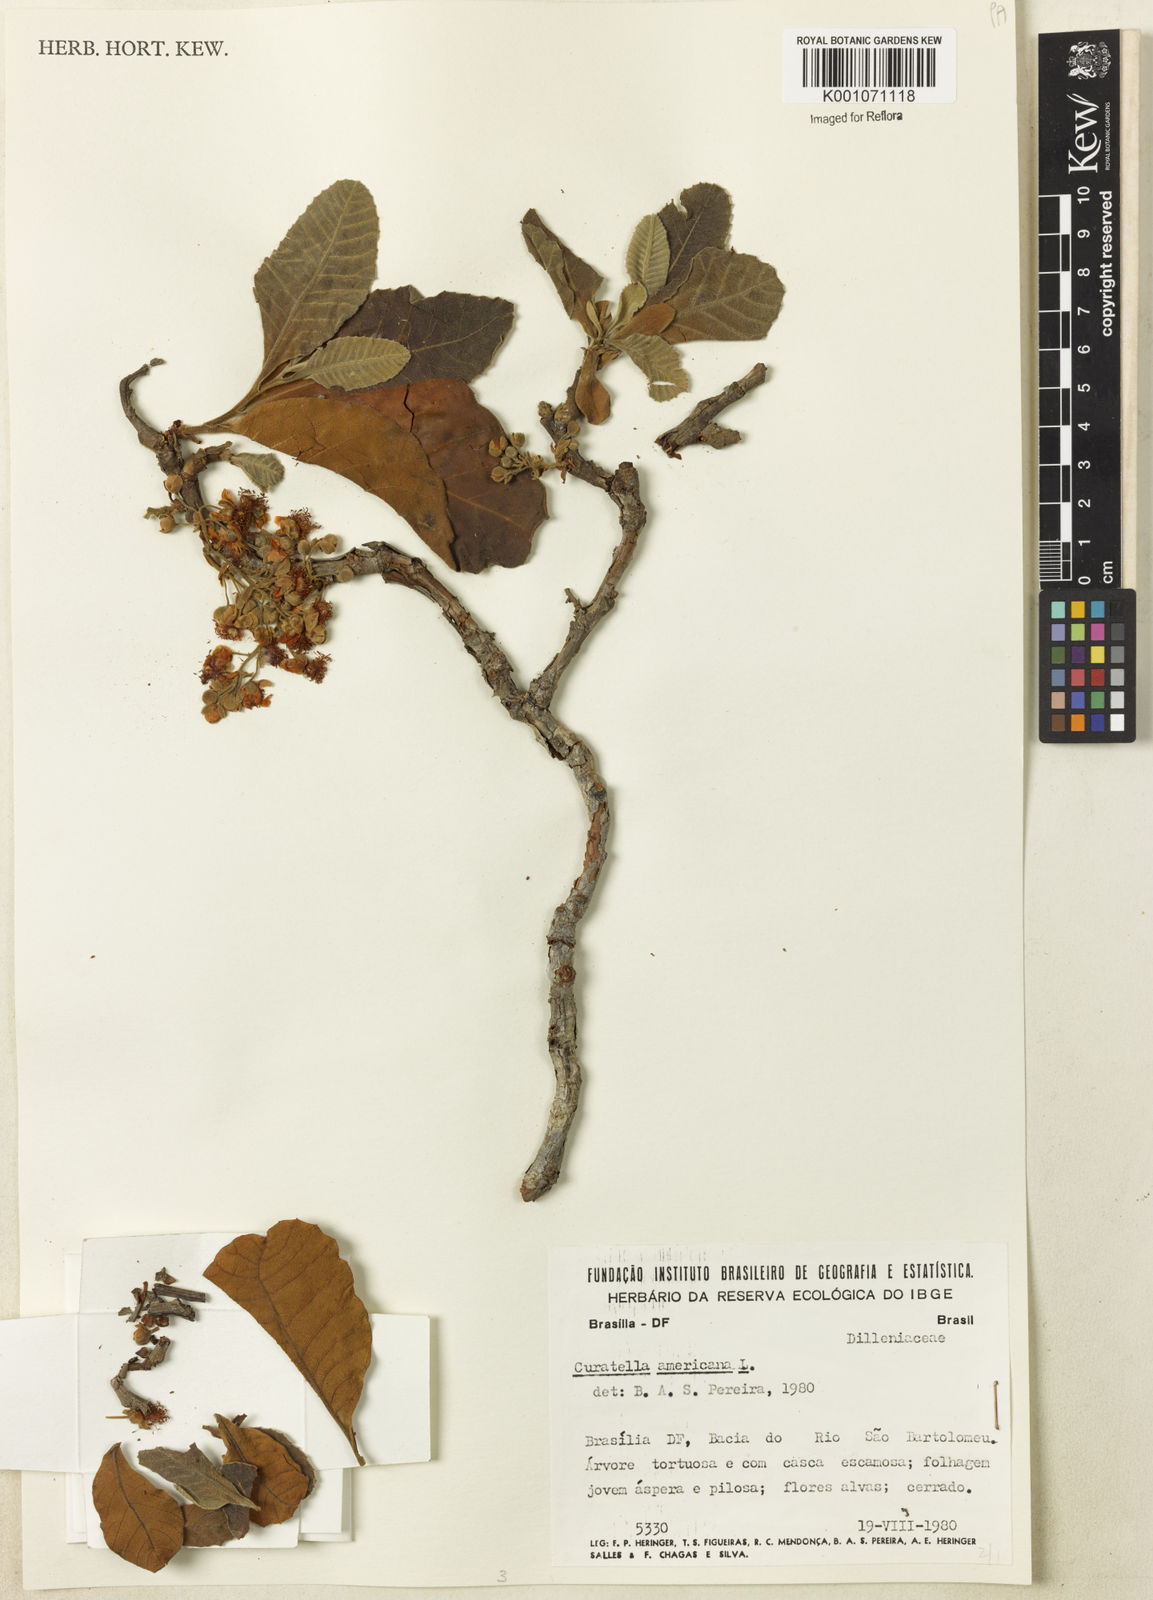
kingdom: Plantae
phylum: Tracheophyta
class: Magnoliopsida
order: Dilleniales
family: Dilleniaceae
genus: Curatella
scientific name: Curatella americana
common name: Sandpaper tree
